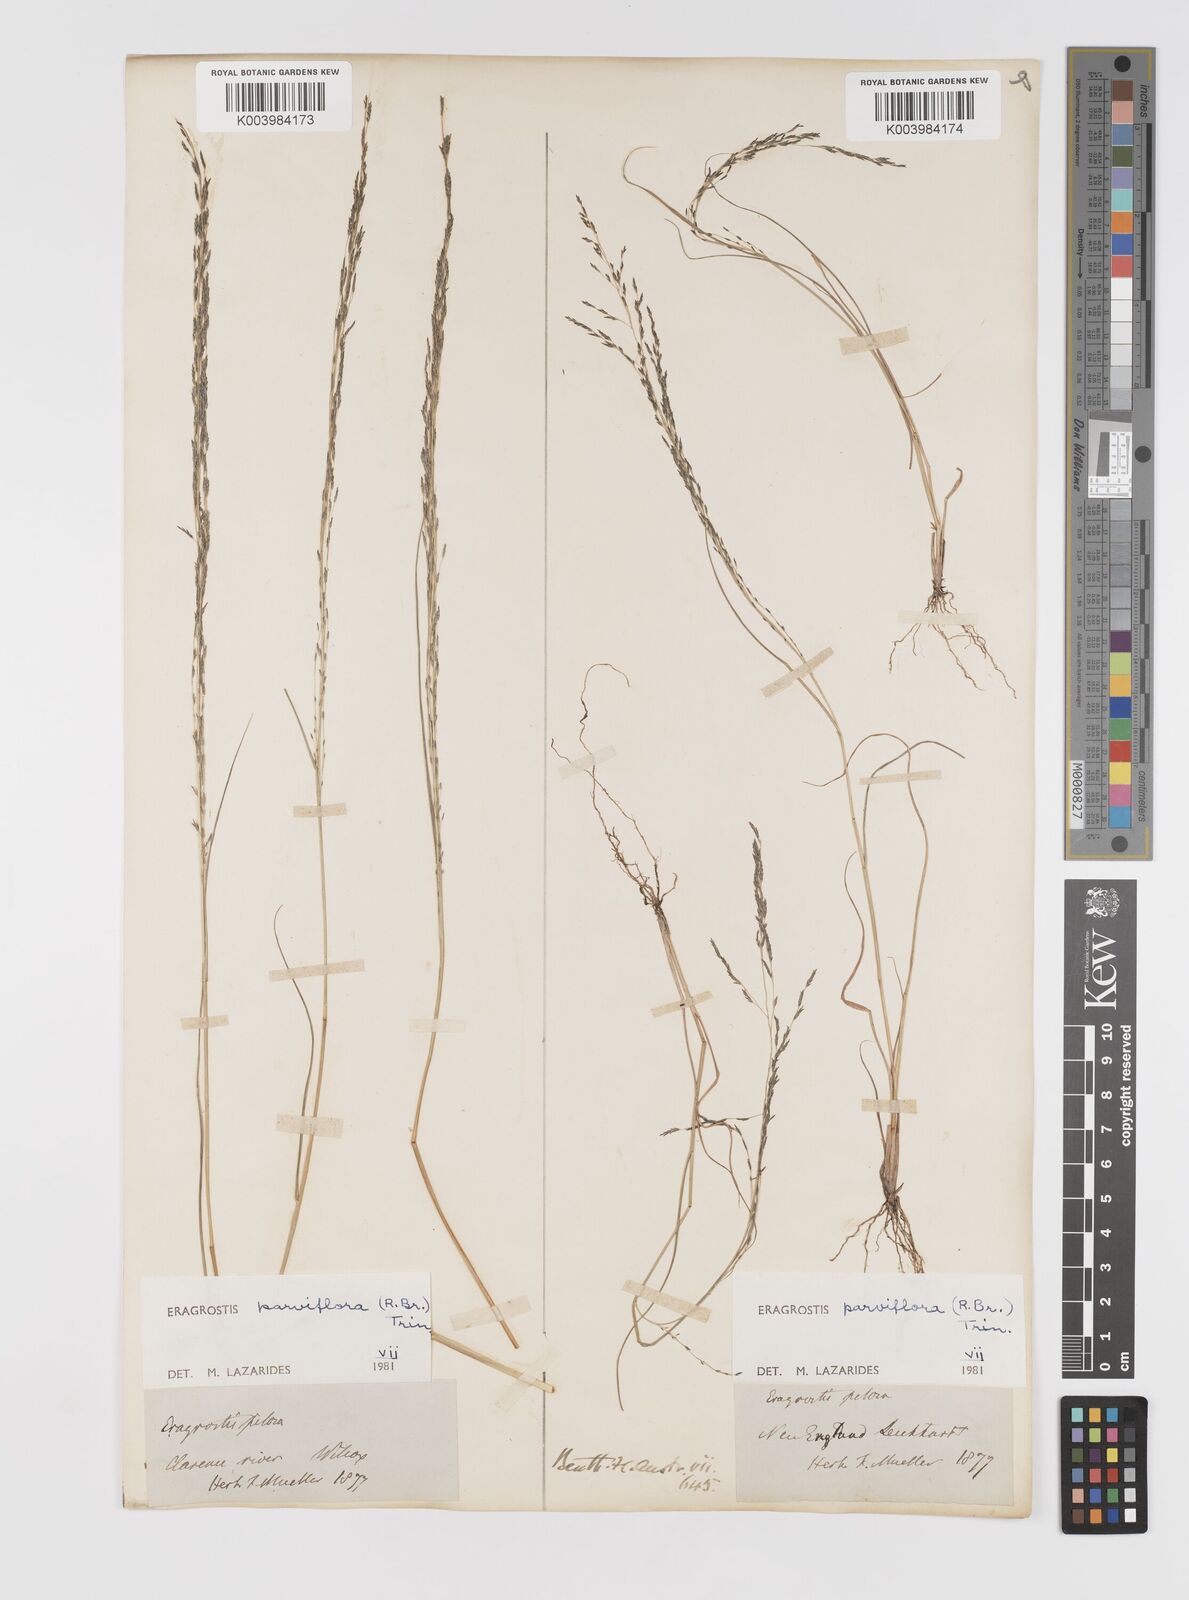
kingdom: Plantae
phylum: Tracheophyta
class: Liliopsida
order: Poales
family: Poaceae
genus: Eragrostis
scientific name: Eragrostis parviflora
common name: Weeping love-grass
